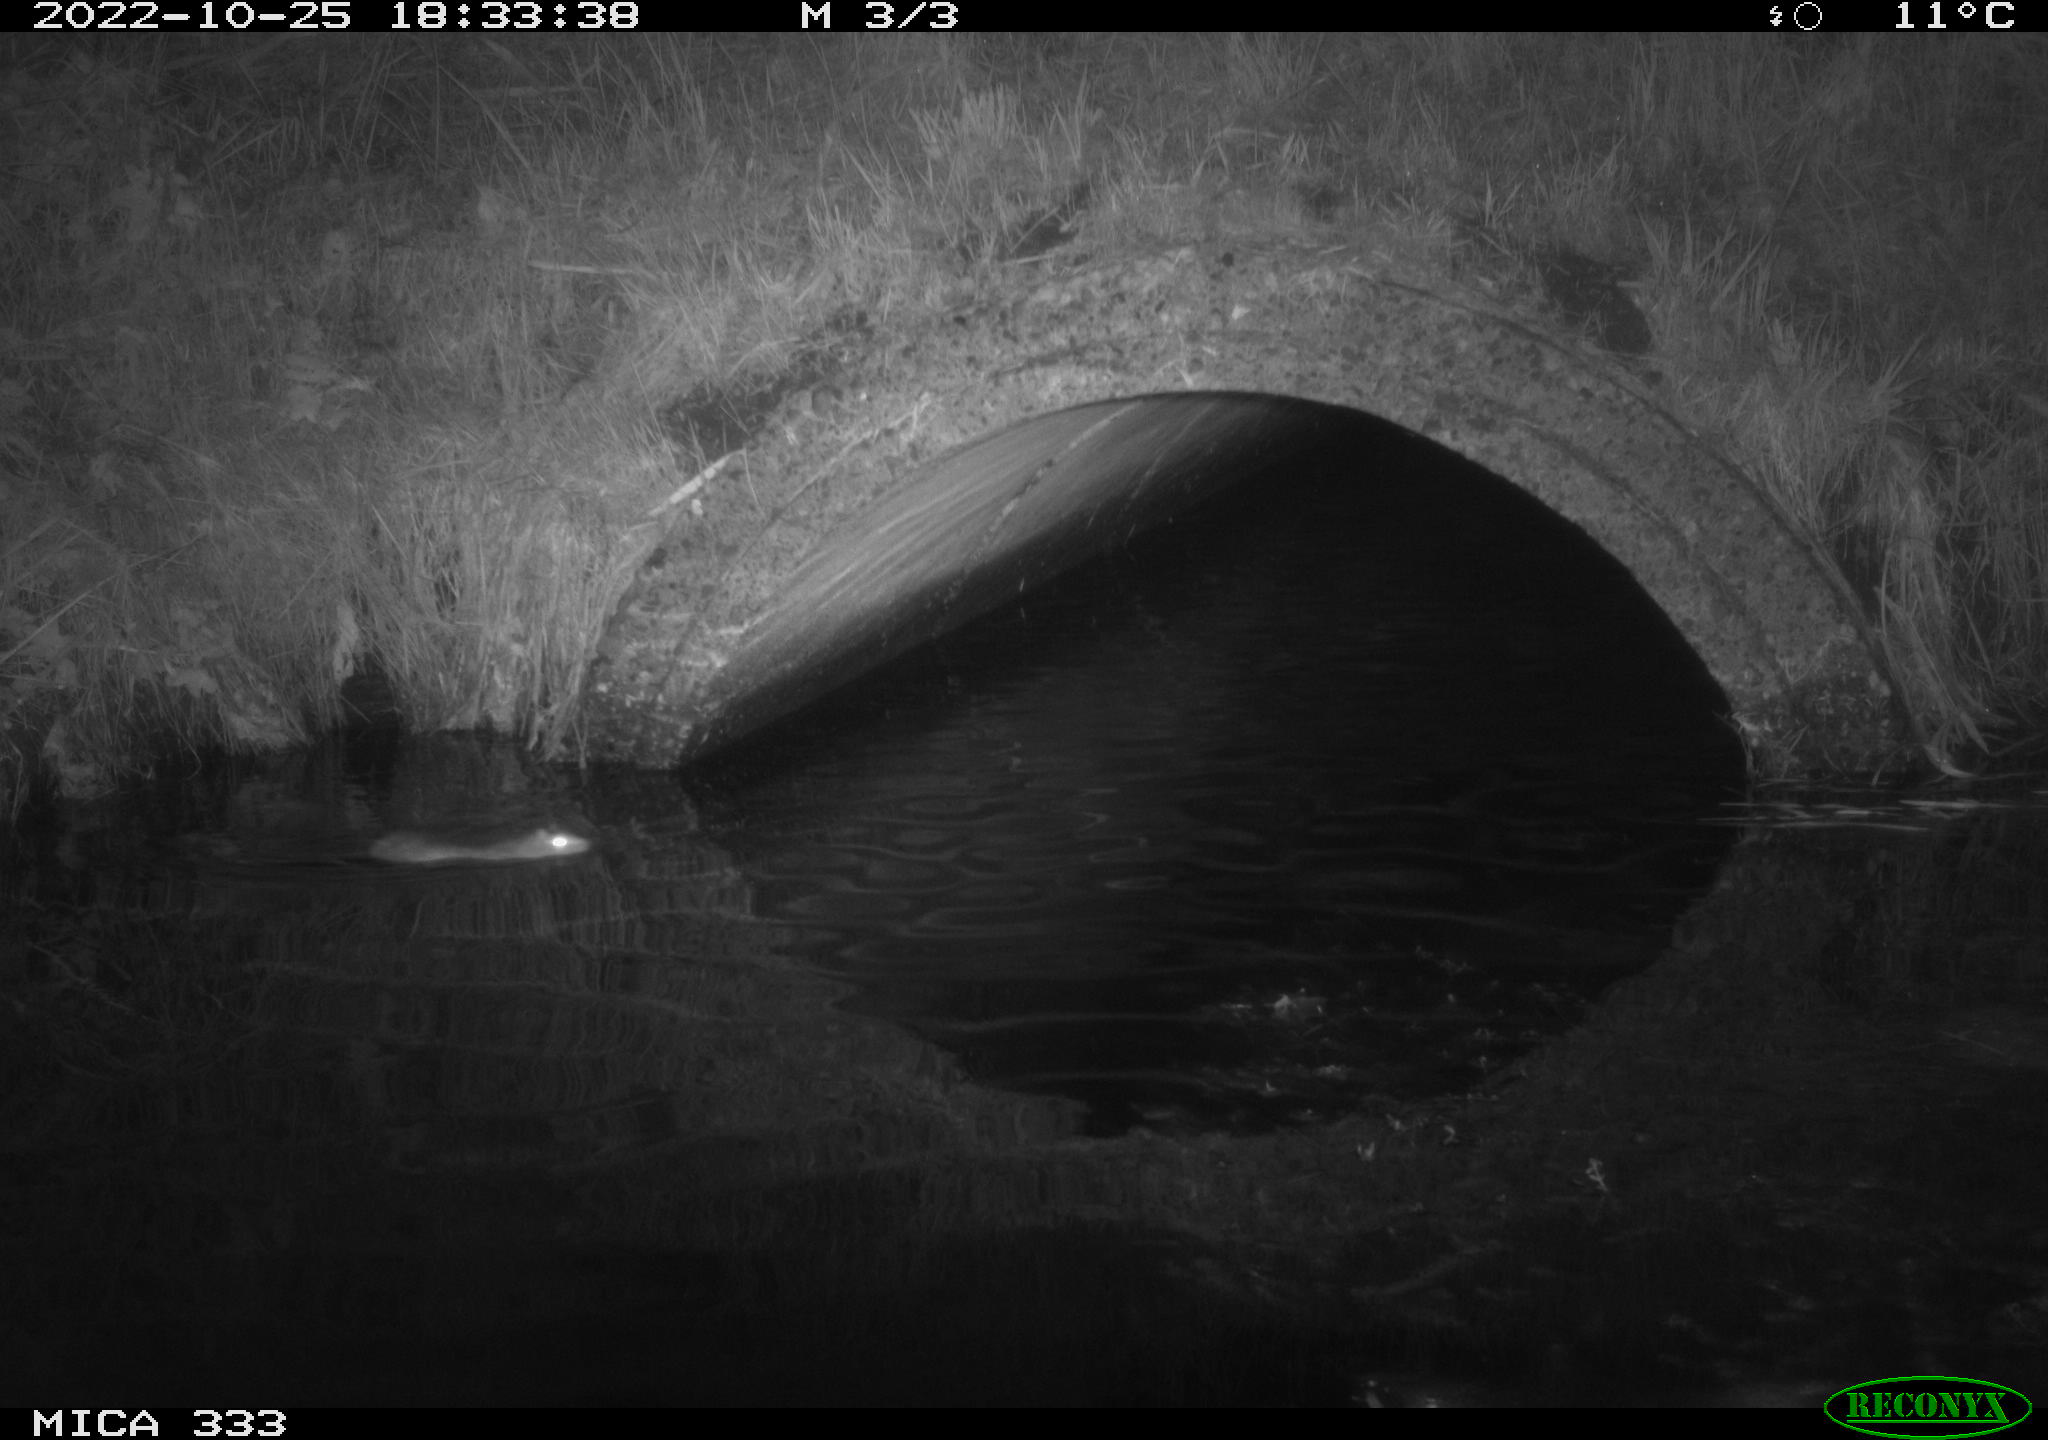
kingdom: Animalia
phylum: Chordata
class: Mammalia
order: Rodentia
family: Muridae
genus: Rattus
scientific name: Rattus norvegicus
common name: Brown rat
